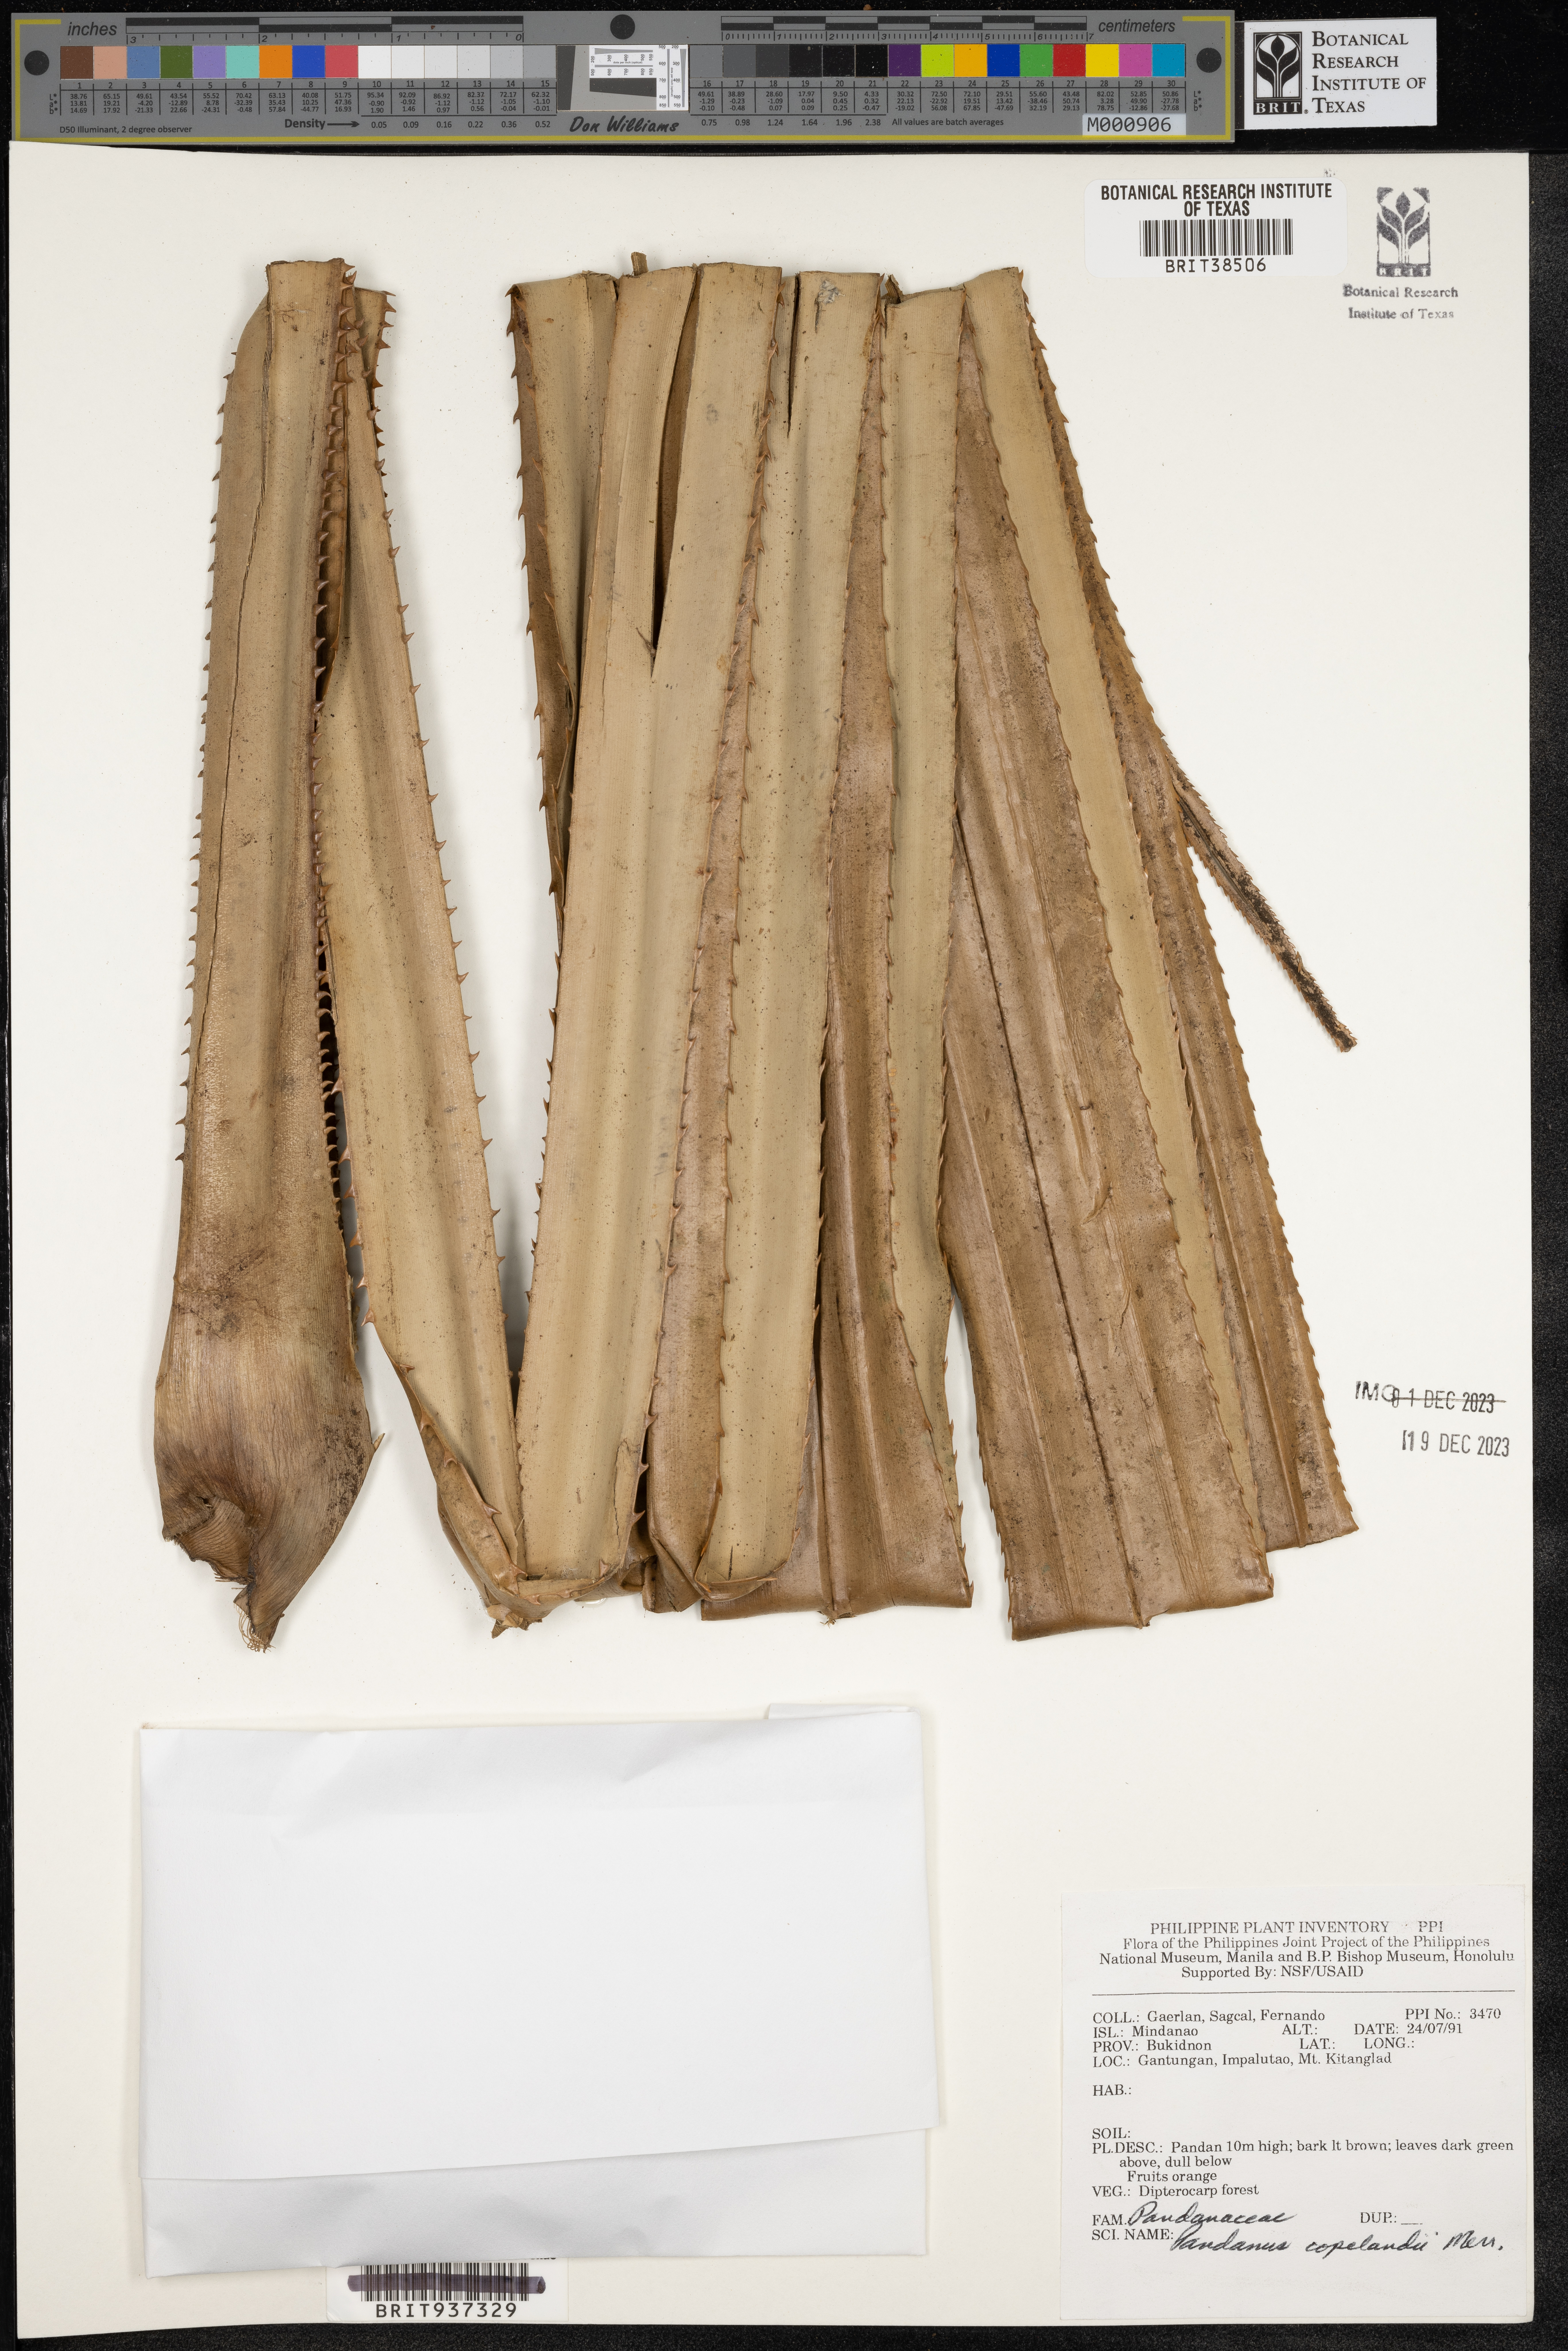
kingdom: Plantae
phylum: Tracheophyta
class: Liliopsida
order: Pandanales
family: Pandanaceae
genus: Benstonea
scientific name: Benstonea copelandii
